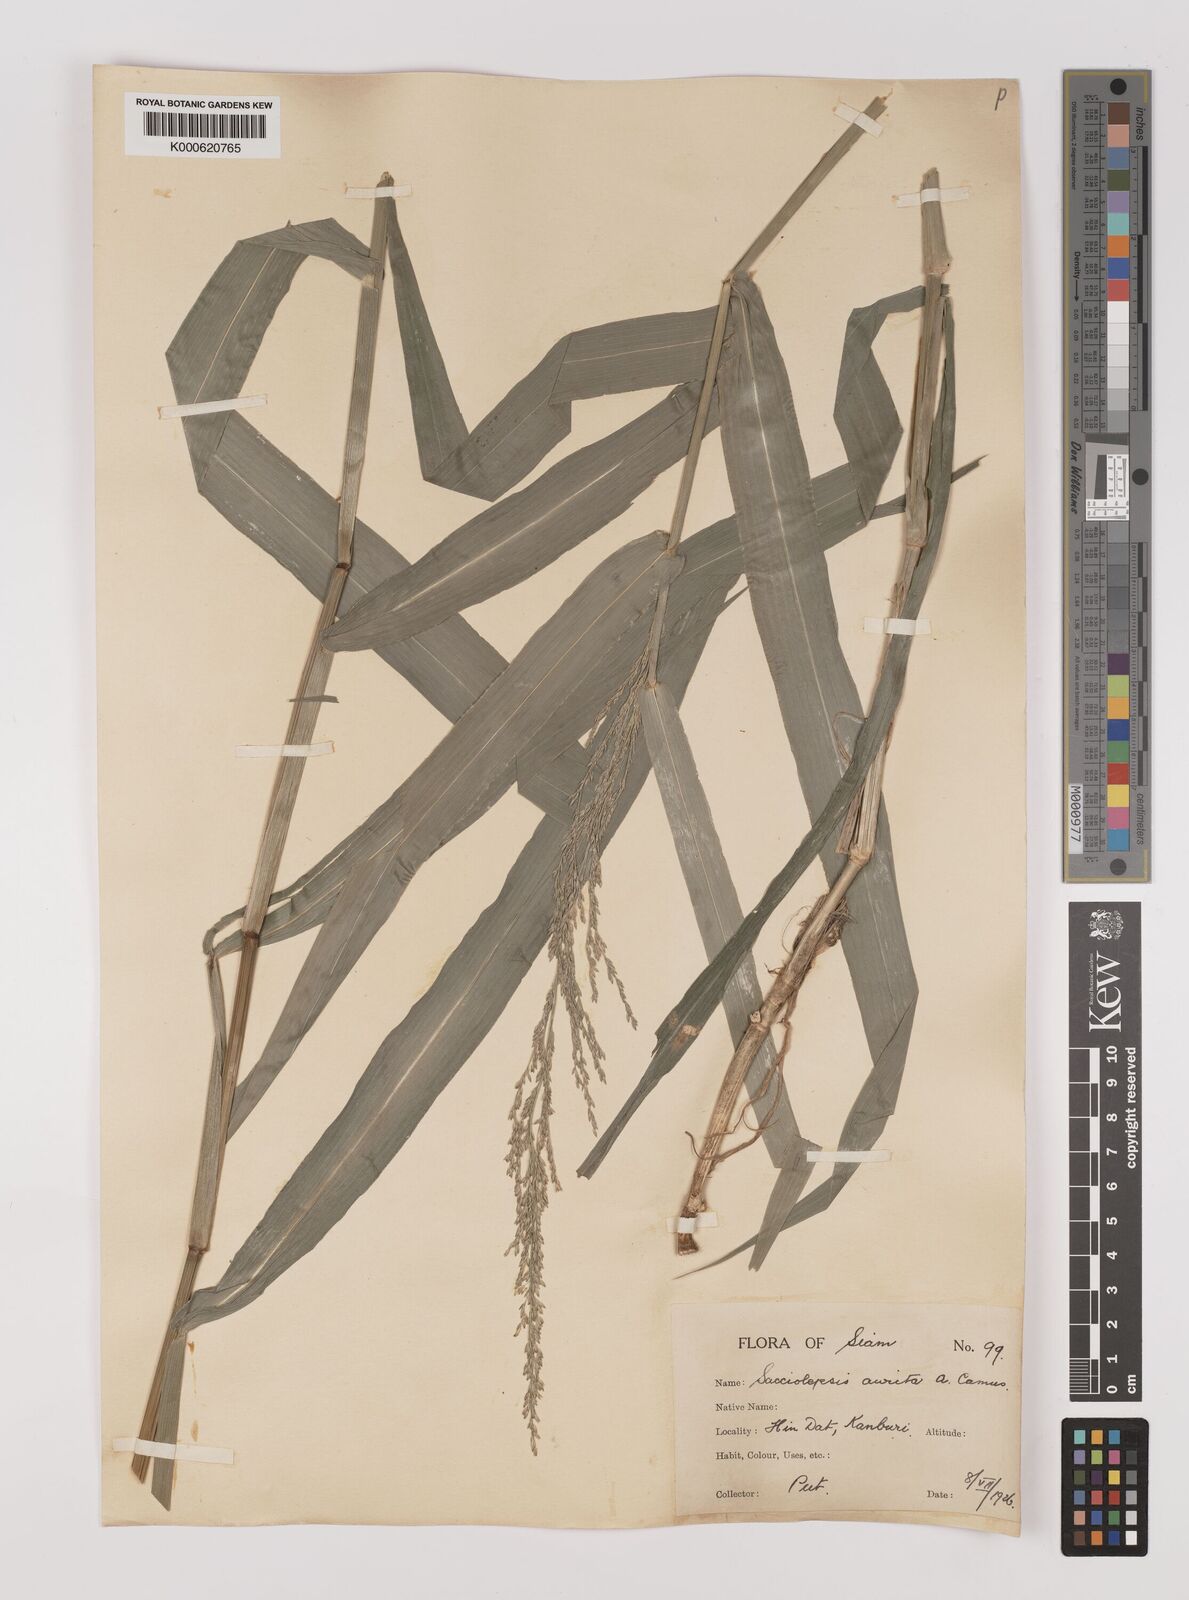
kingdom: Plantae
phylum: Tracheophyta
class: Liliopsida
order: Poales
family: Poaceae
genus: Hymenachne
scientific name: Hymenachne aurita
